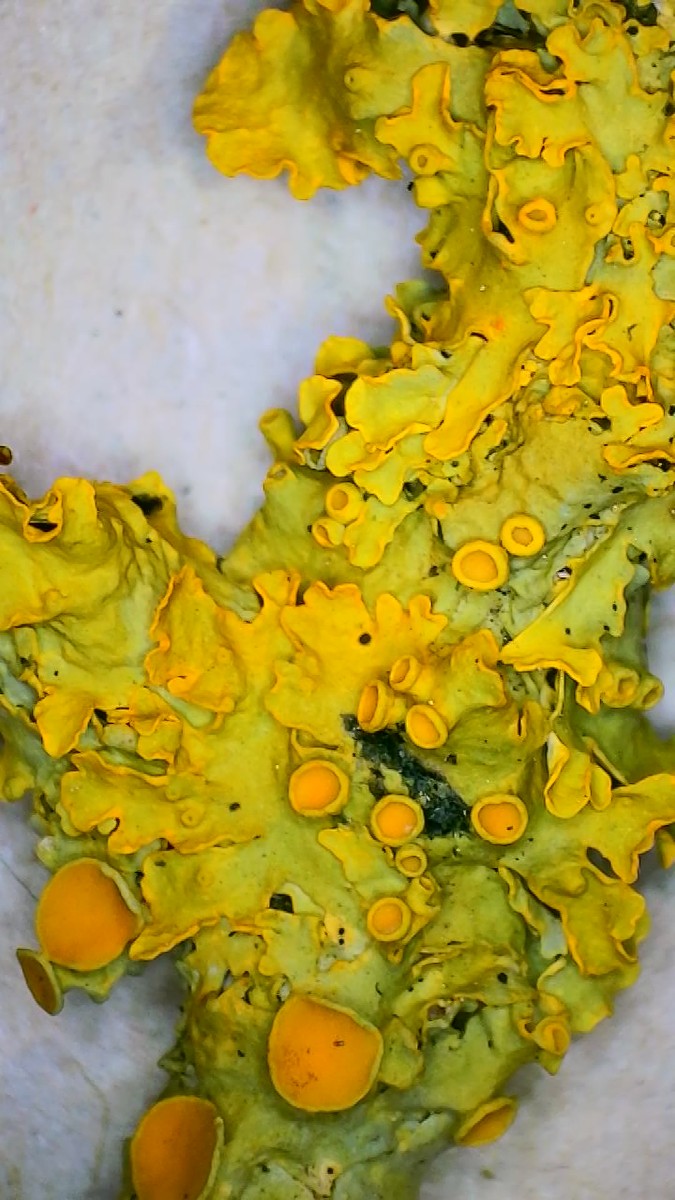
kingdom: Fungi
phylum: Ascomycota
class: Lecanoromycetes
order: Teloschistales
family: Teloschistaceae
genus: Xanthoria
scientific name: Xanthoria parietina
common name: almindelig væggelav
